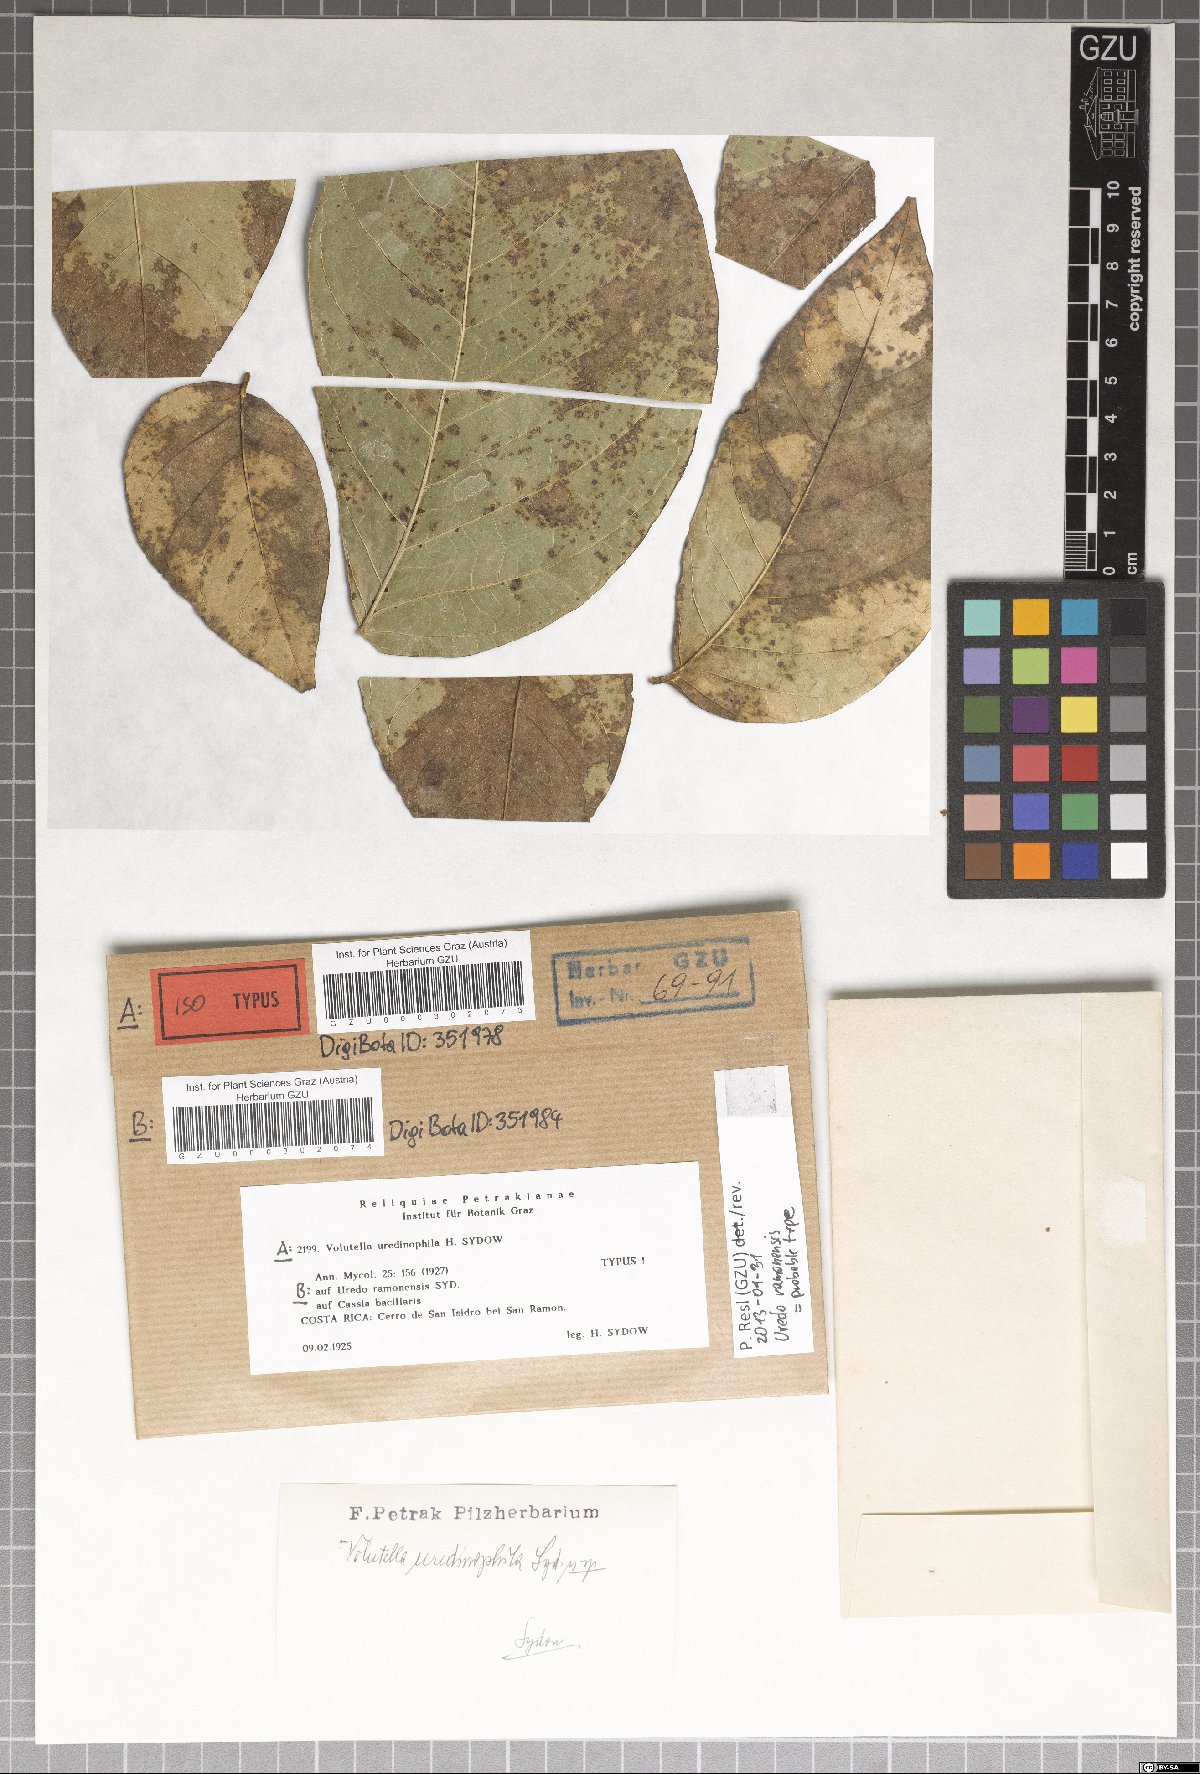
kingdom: Fungi
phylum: Ascomycota
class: Sordariomycetes
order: Hypocreales
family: Nectriaceae
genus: Volutella
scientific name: Volutella uredinophila
